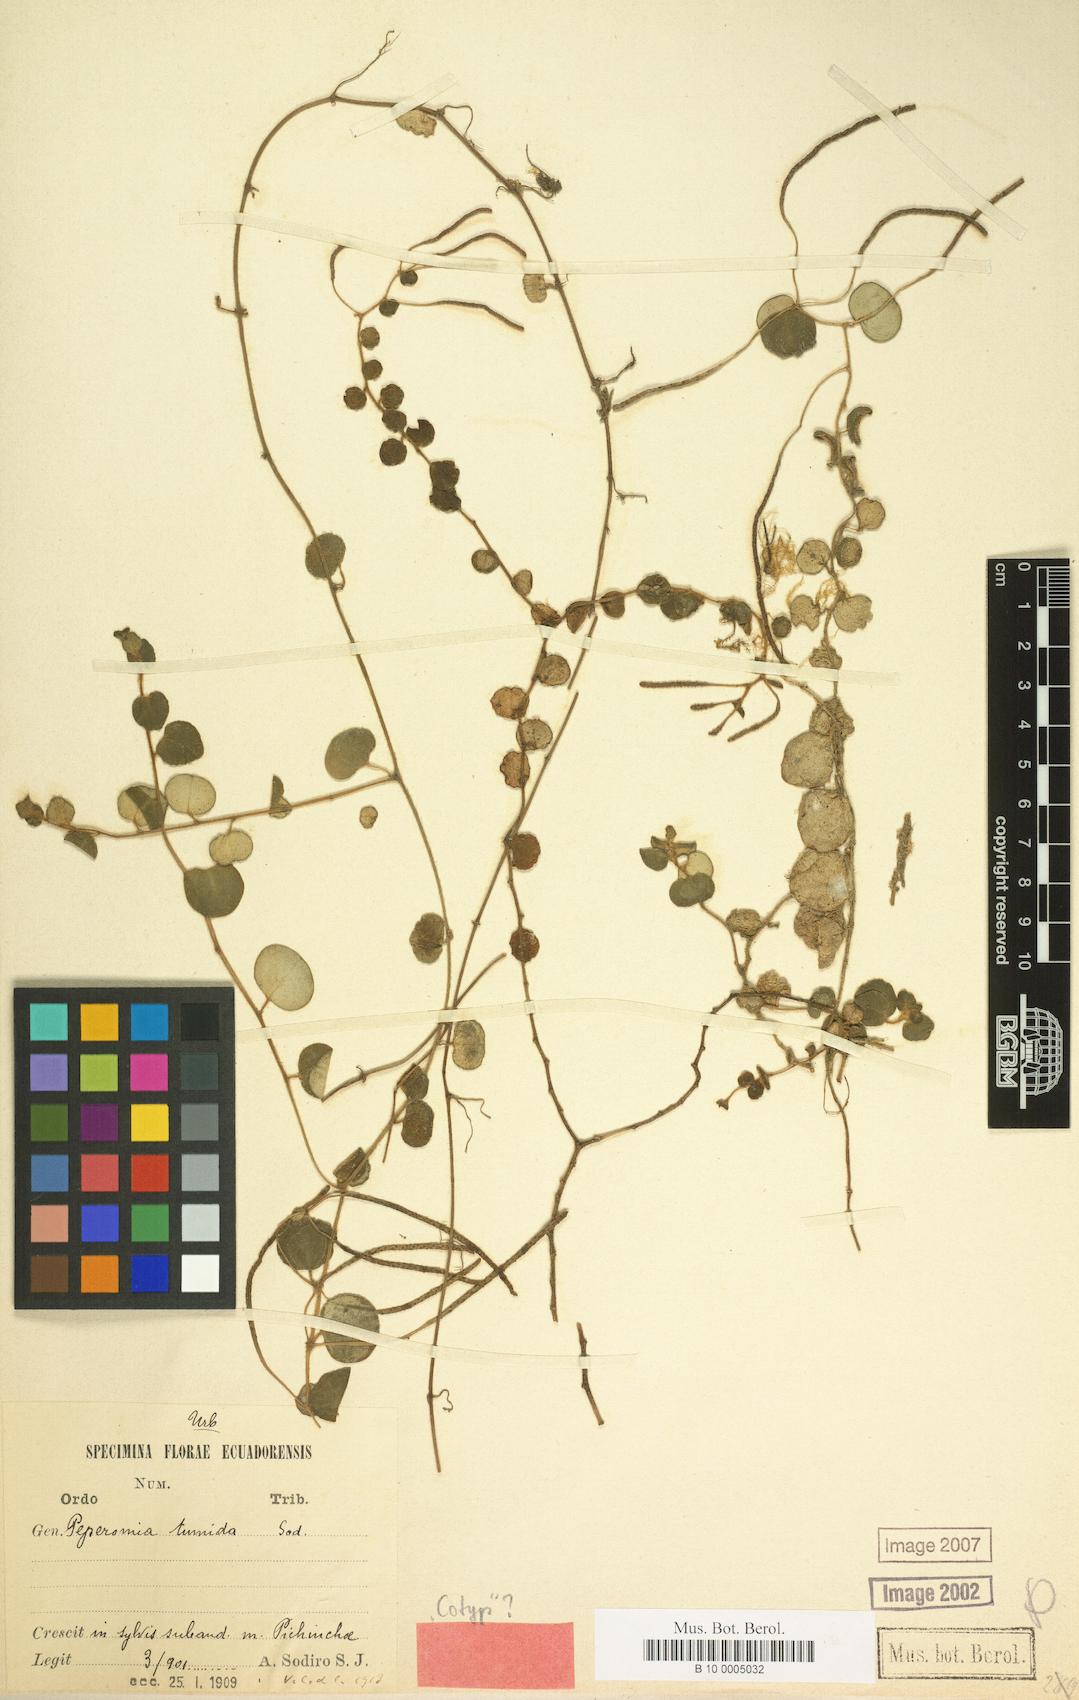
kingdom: Plantae
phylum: Tracheophyta
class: Magnoliopsida
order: Piperales
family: Piperaceae
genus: Peperomia
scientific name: Peperomia parasitica
